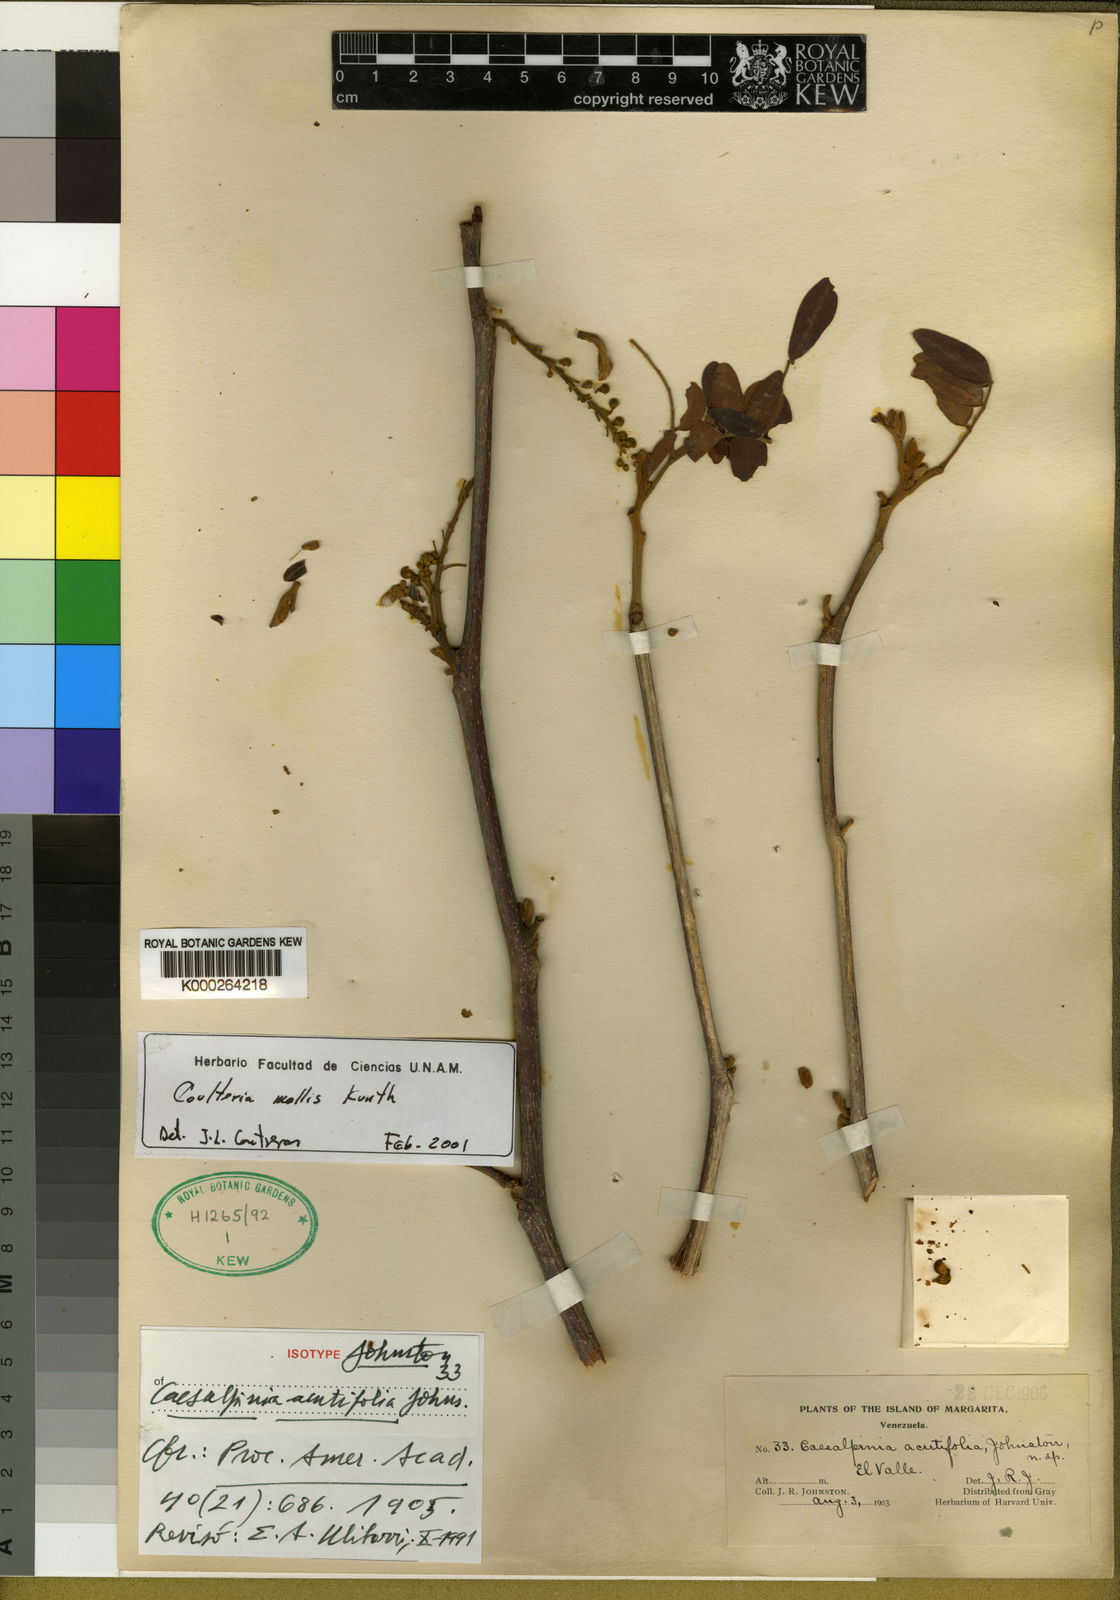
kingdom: Plantae
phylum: Tracheophyta
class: Magnoliopsida
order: Fabales
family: Fabaceae
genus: Coulteria
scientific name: Coulteria mollis
